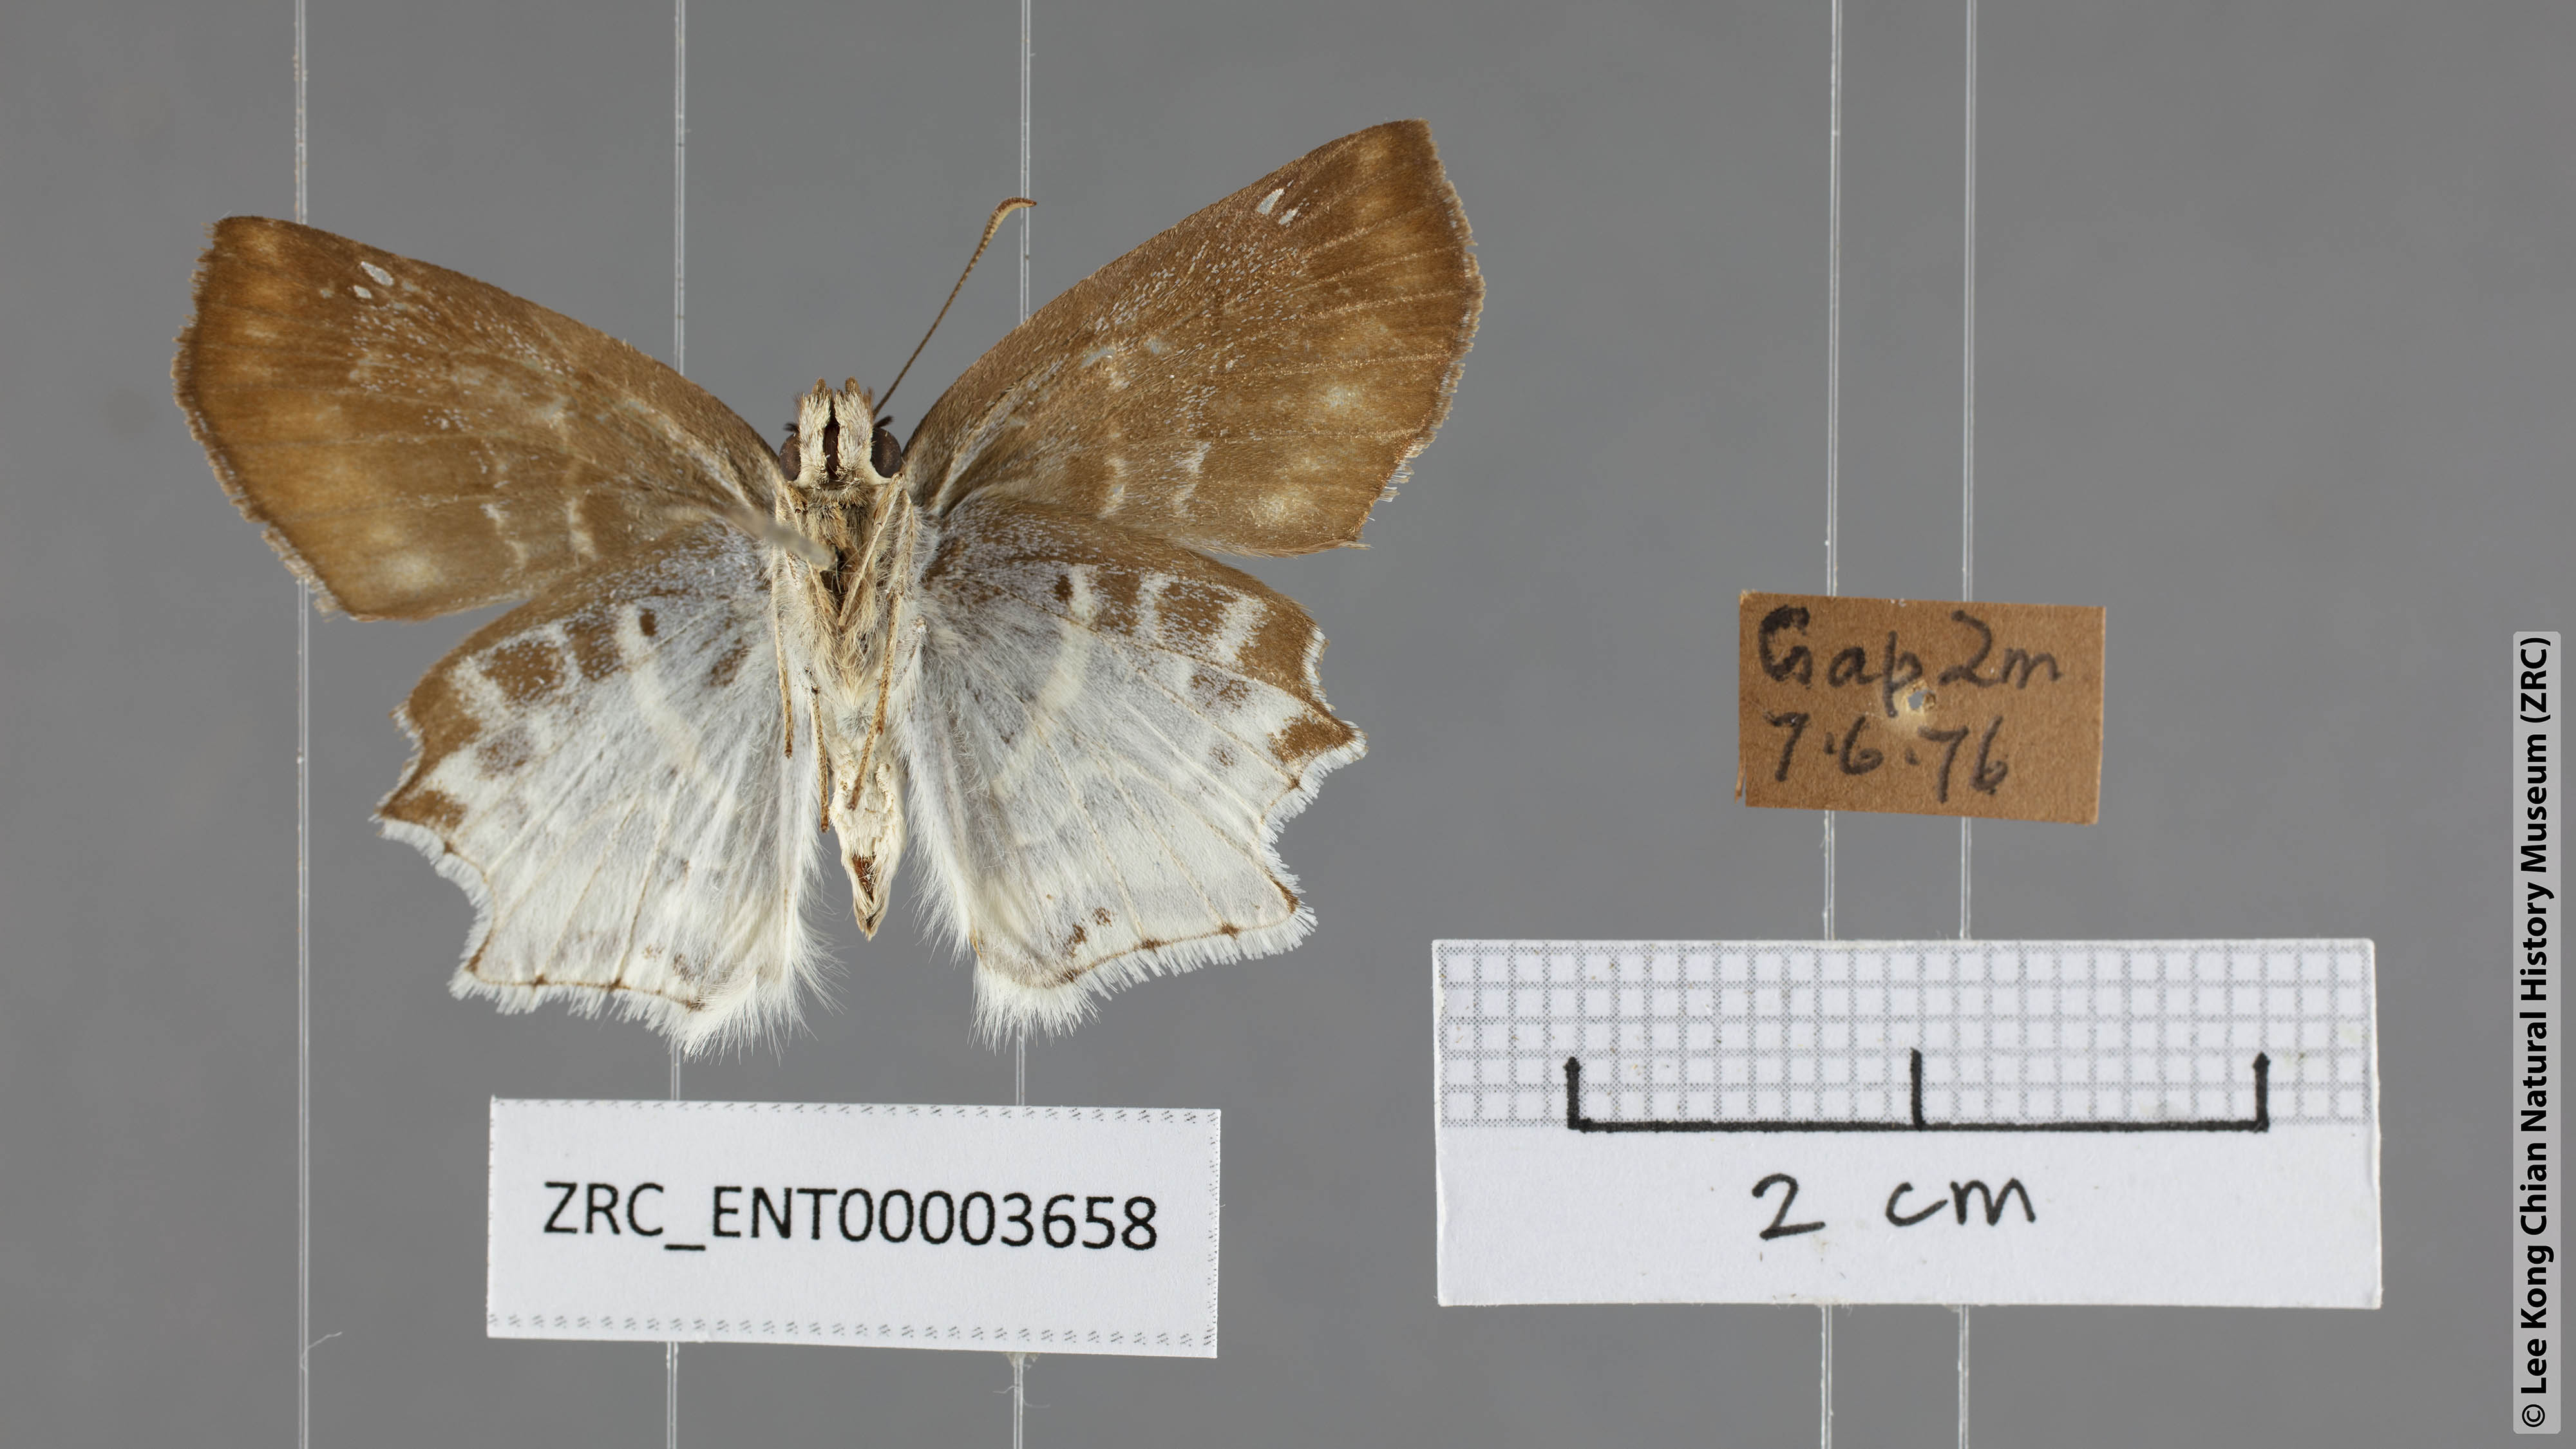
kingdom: Animalia
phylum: Arthropoda
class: Insecta
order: Lepidoptera
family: Hesperiidae
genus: Odontoptilum
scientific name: Odontoptilum pygela
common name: Banded angle
